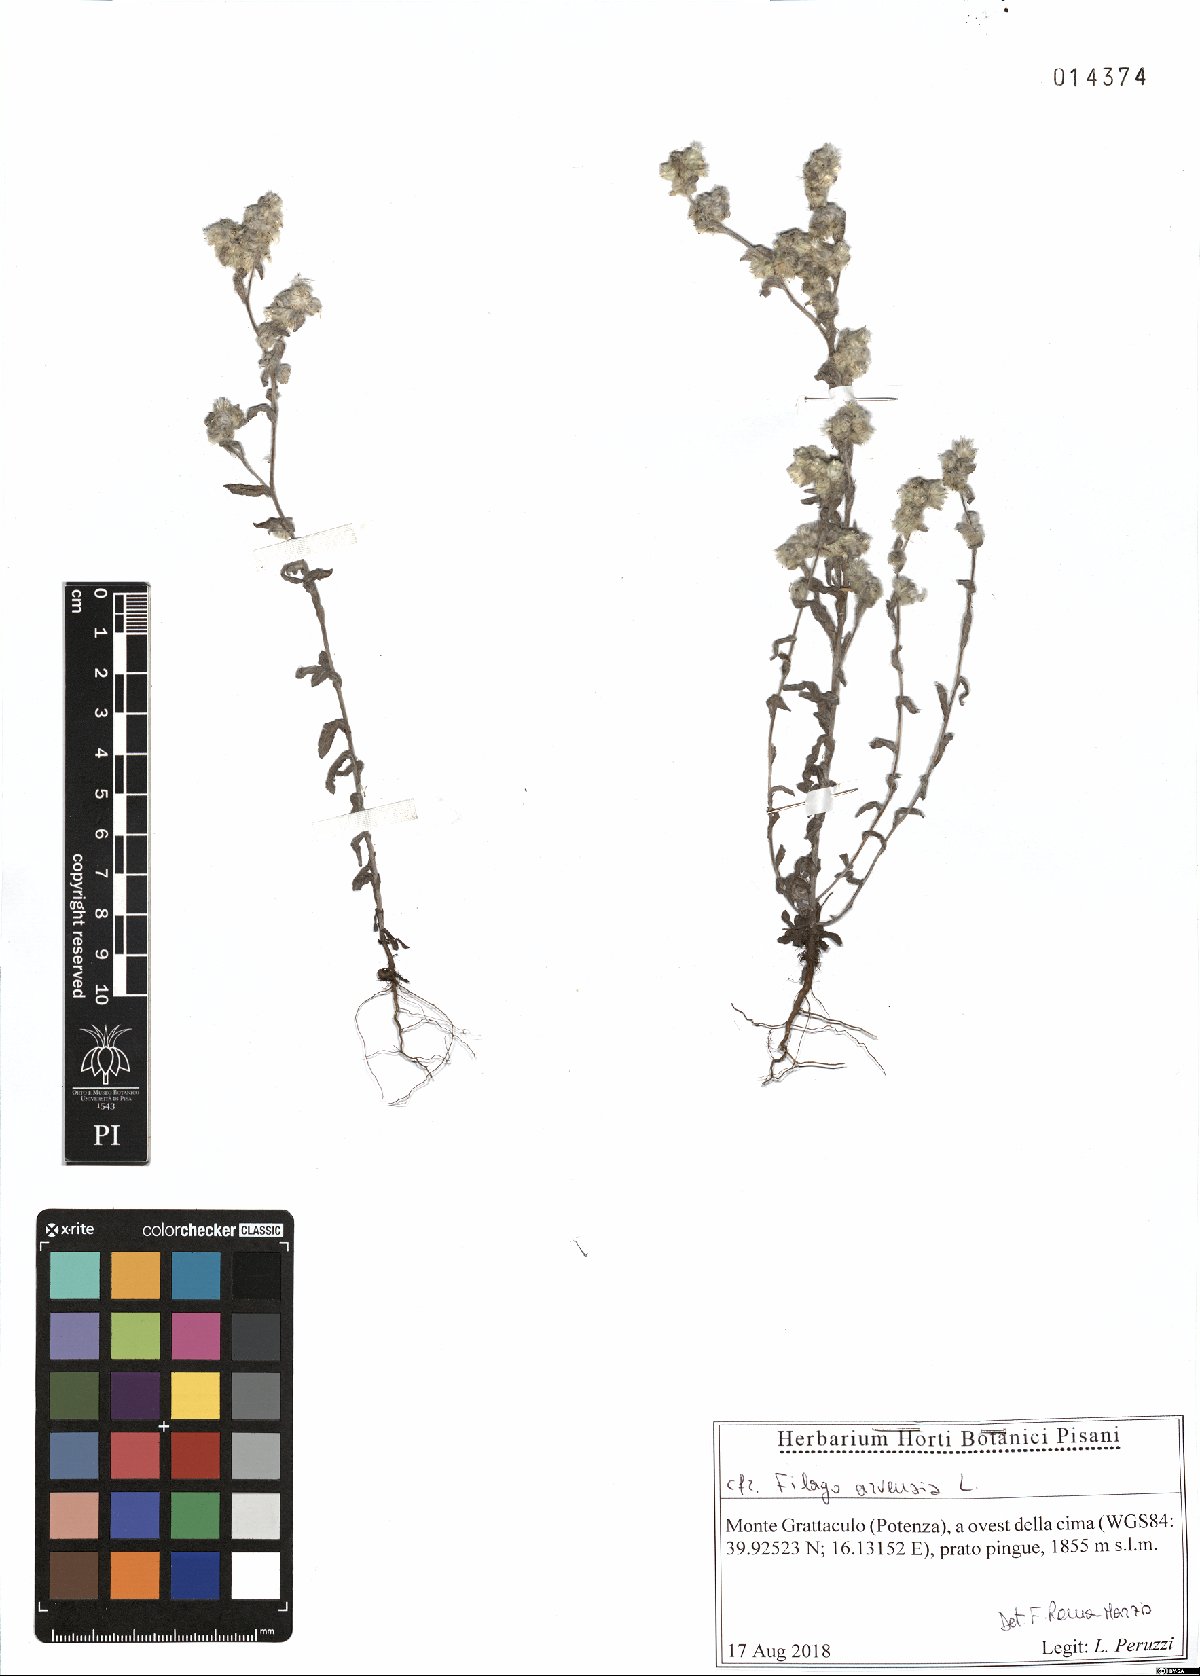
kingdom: Plantae
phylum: Tracheophyta
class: Magnoliopsida
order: Asterales
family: Asteraceae
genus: Filago
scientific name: Filago arvensis
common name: Field cudweed
